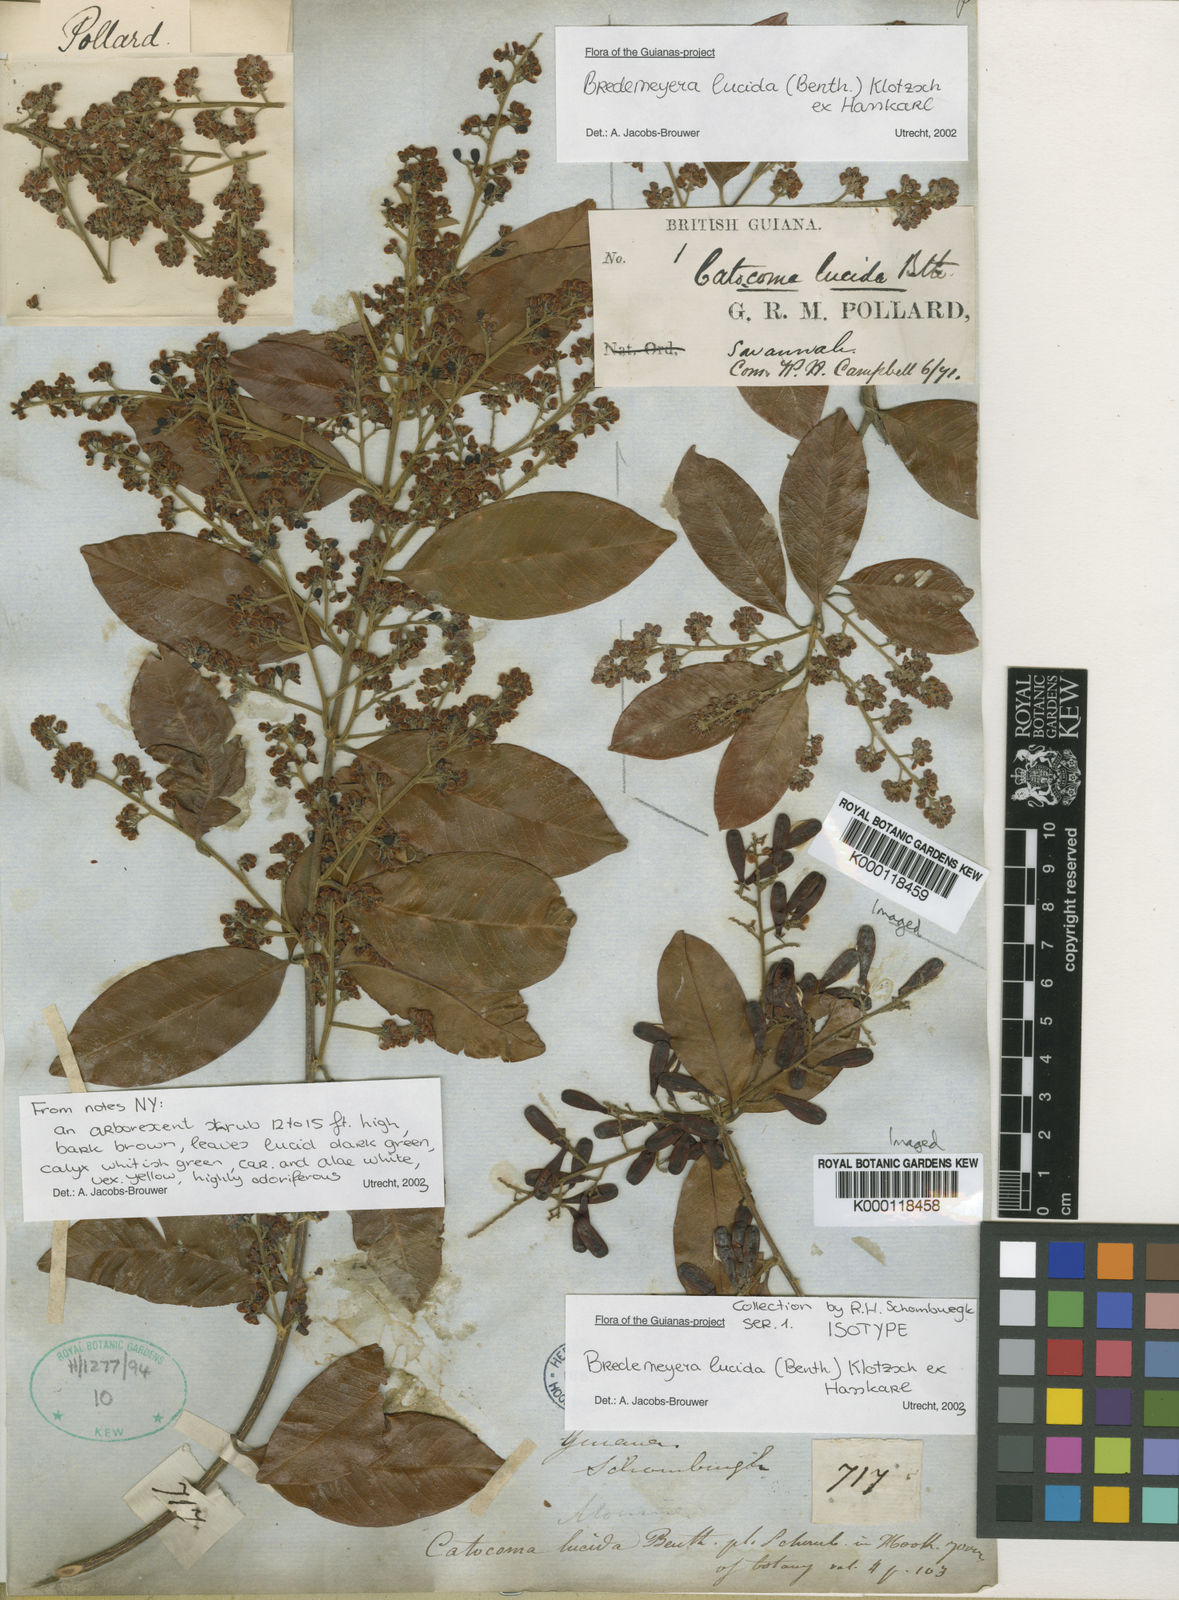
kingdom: Plantae
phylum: Tracheophyta
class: Magnoliopsida
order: Fabales
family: Polygalaceae
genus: Bredemeyera
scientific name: Bredemeyera lucida
